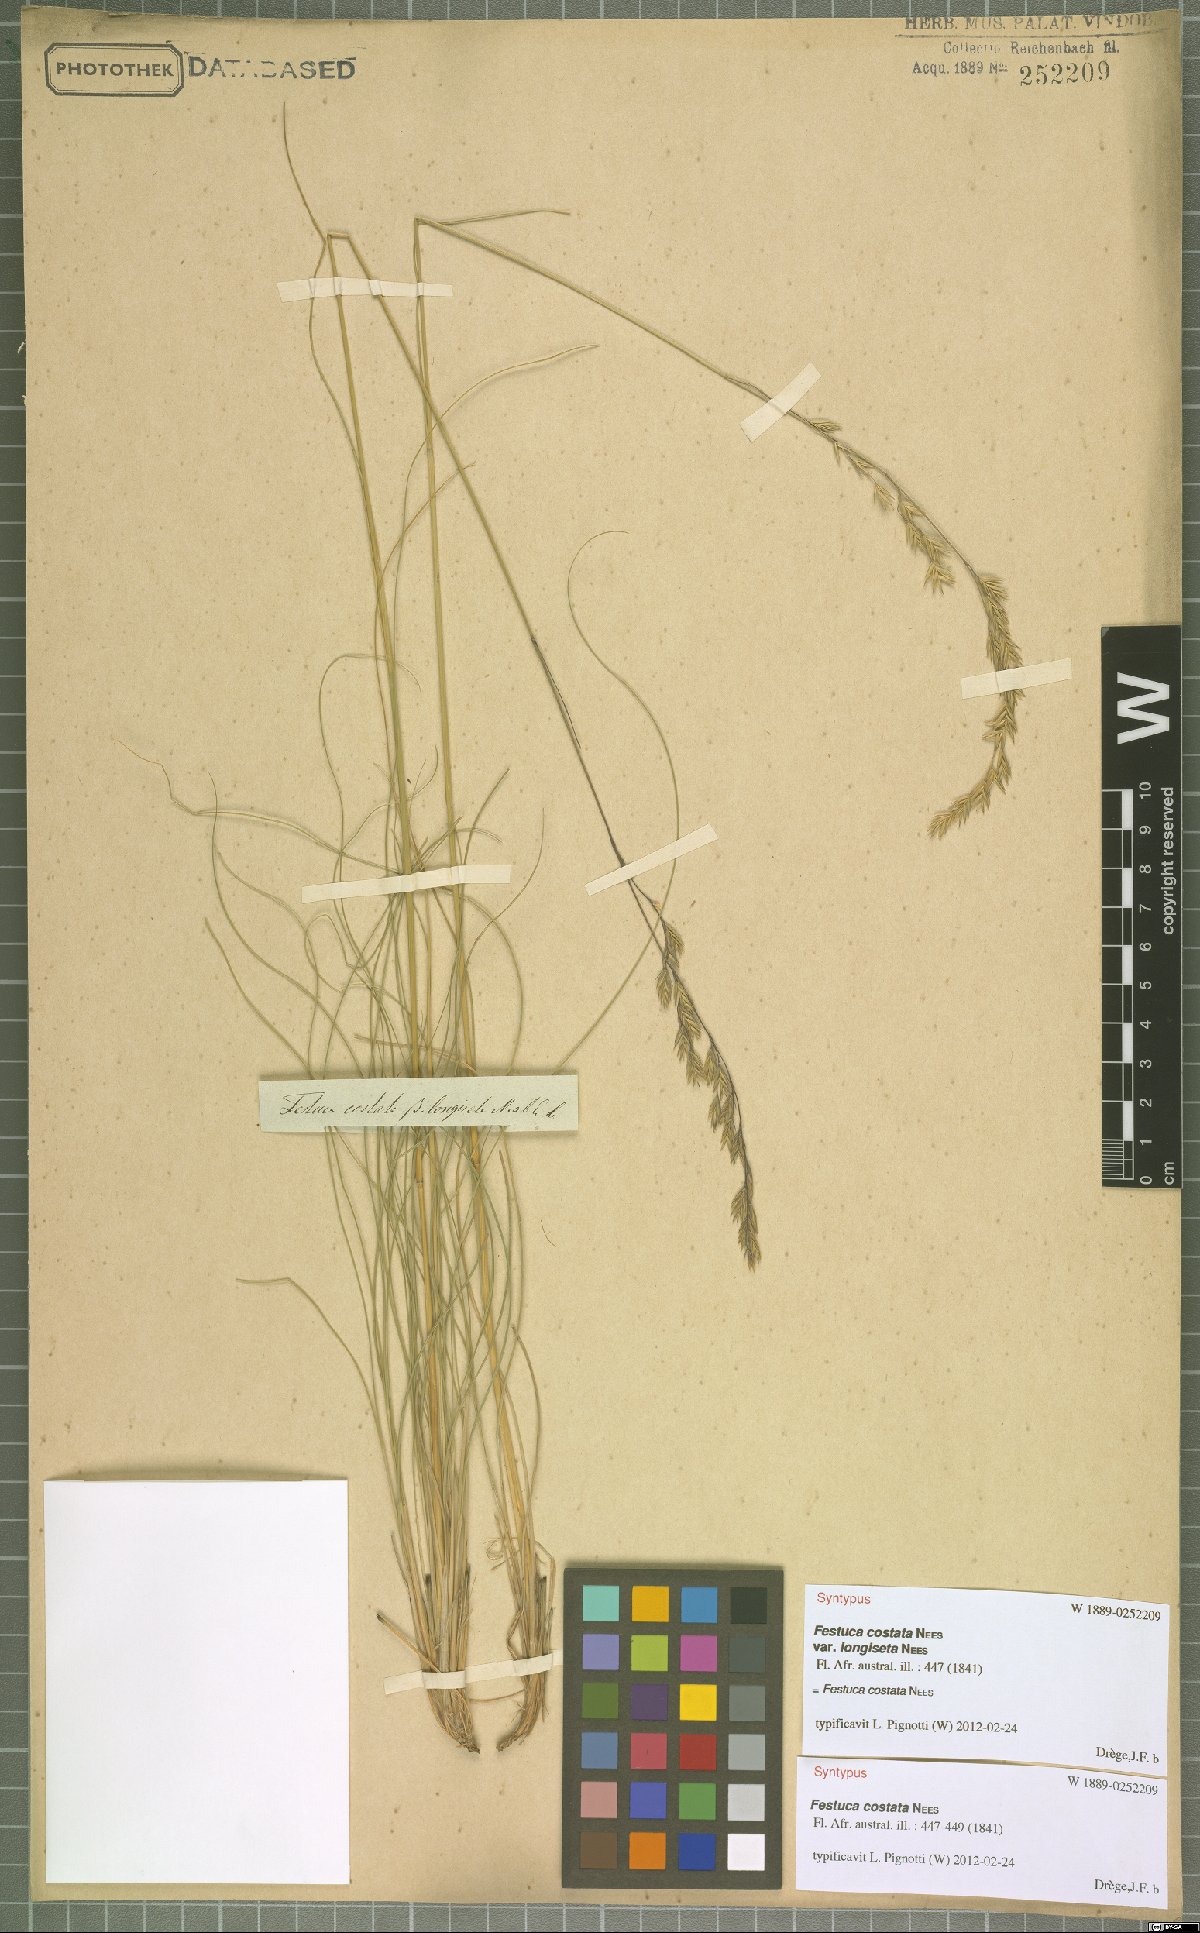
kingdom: Plantae
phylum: Tracheophyta
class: Liliopsida
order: Poales
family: Poaceae
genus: Festuca
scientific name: Festuca costata
